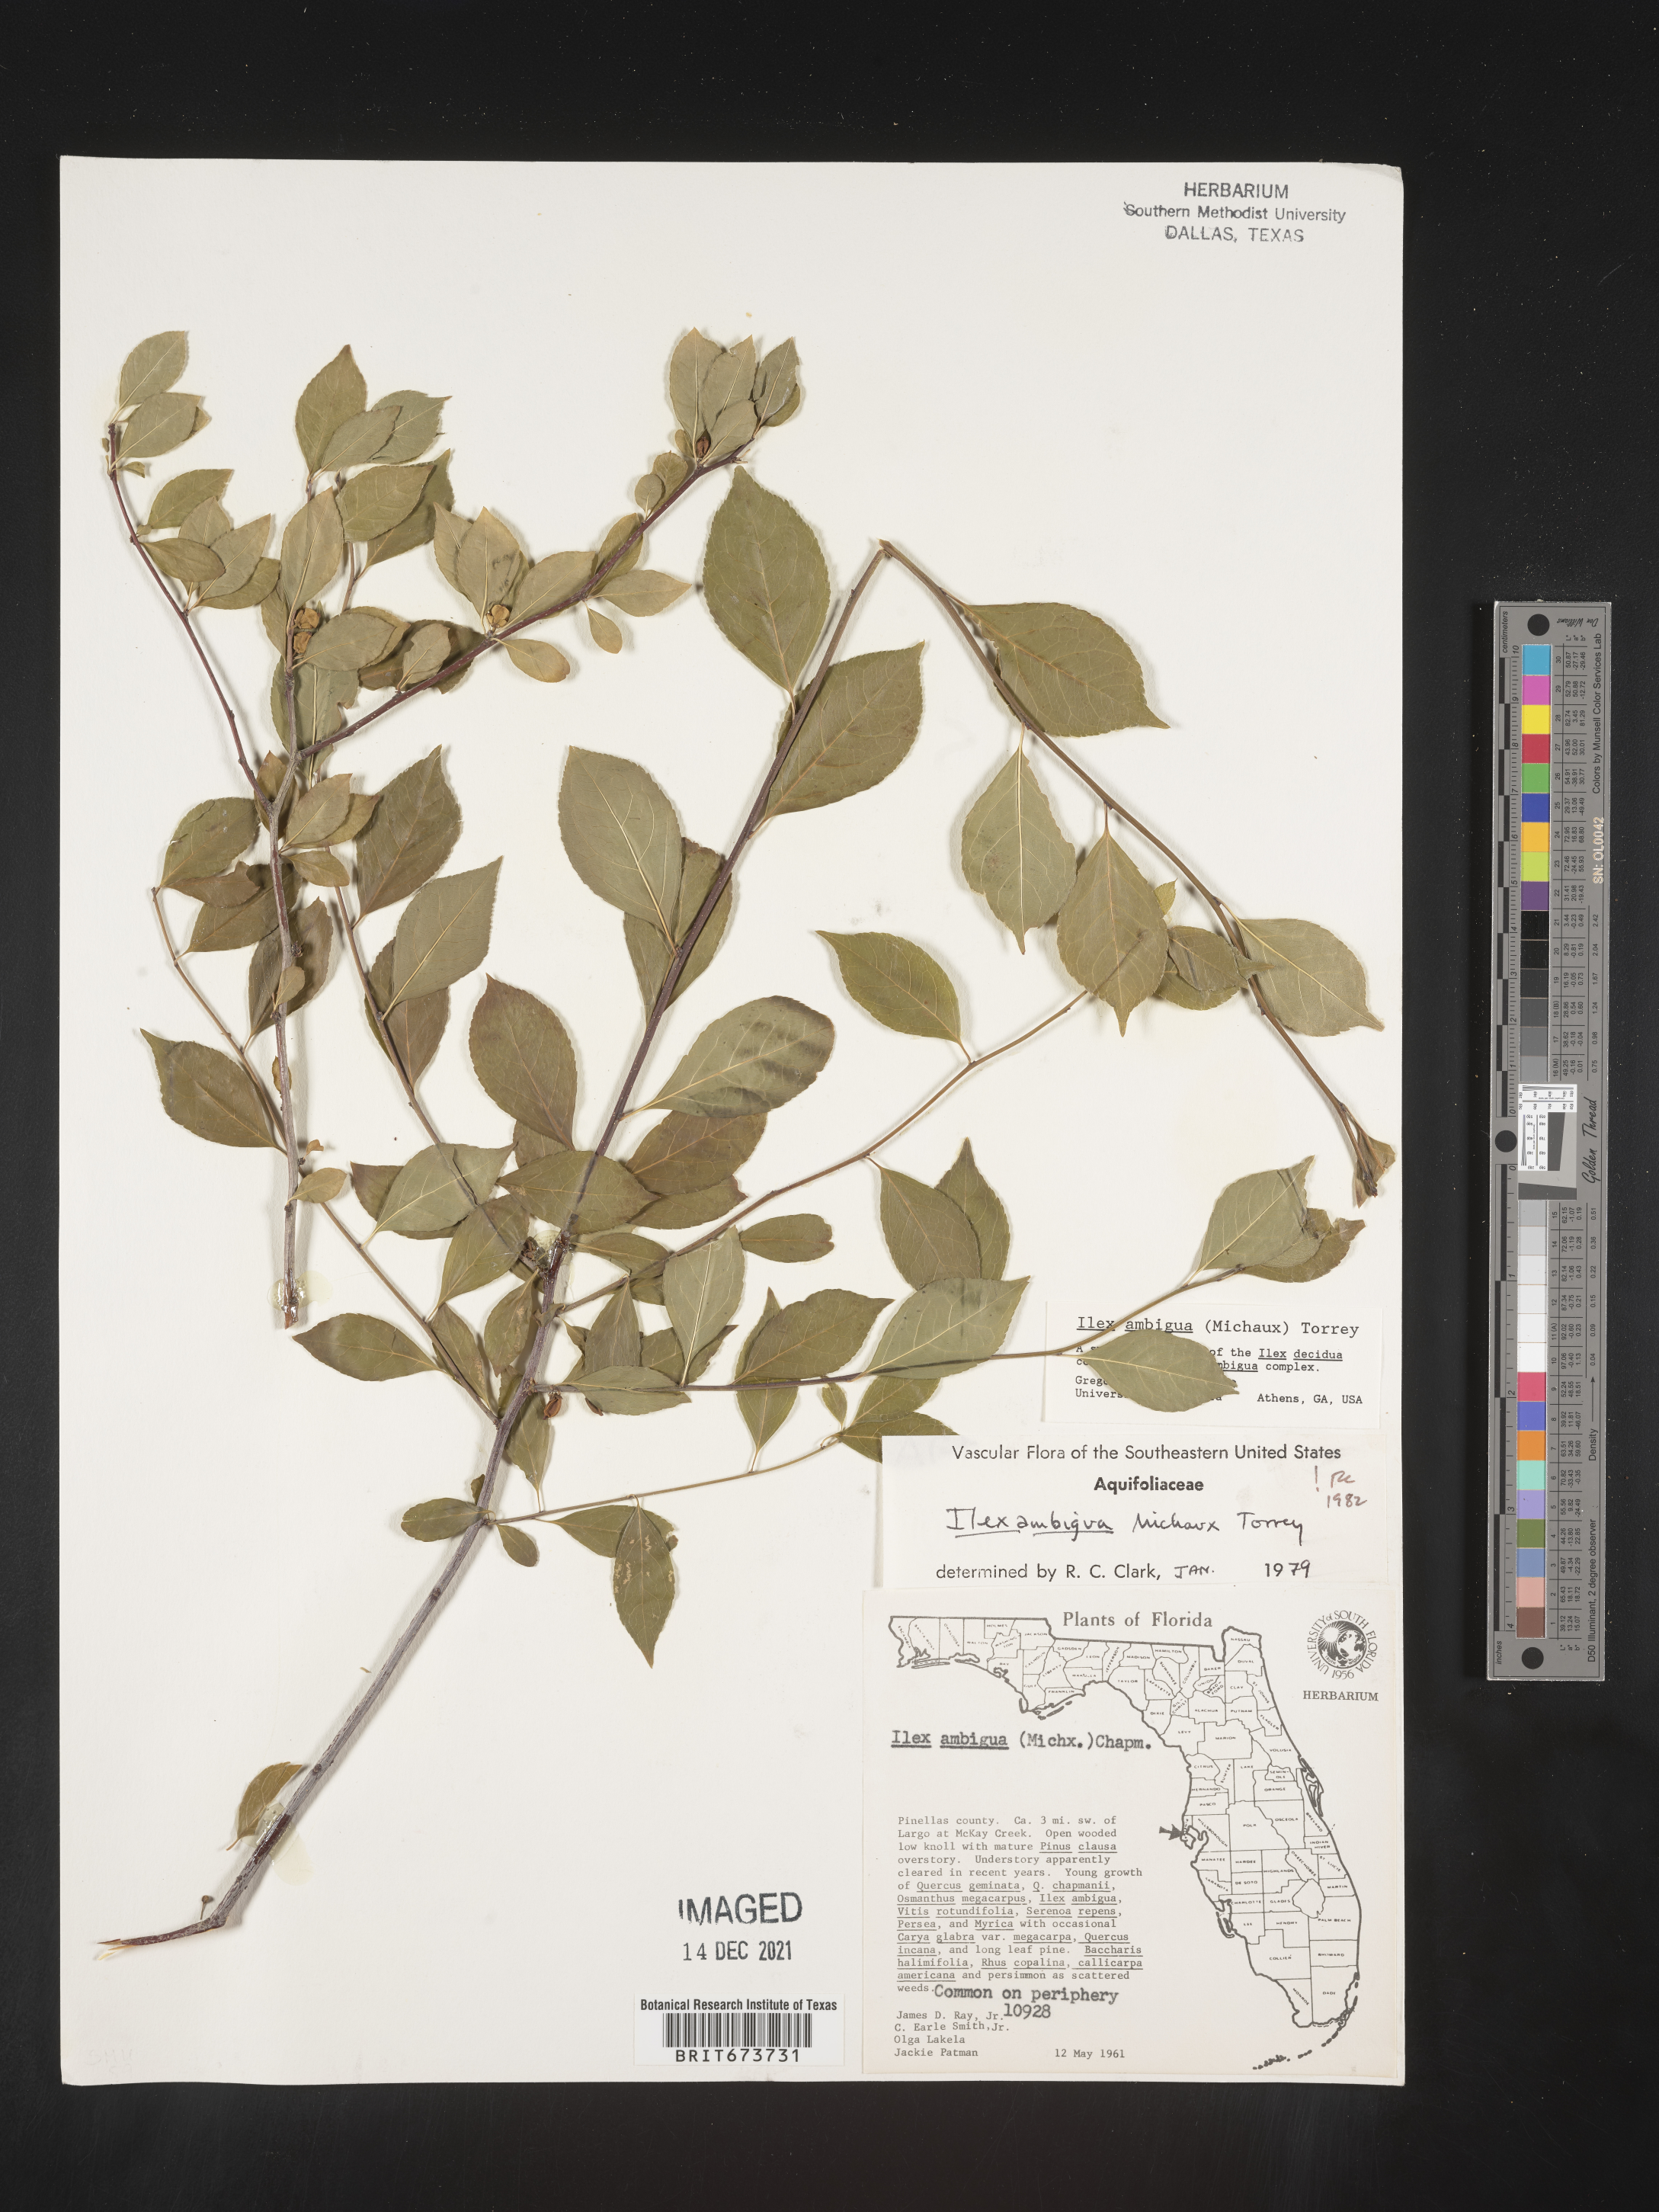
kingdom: Plantae
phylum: Tracheophyta
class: Magnoliopsida
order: Aquifoliales
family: Aquifoliaceae
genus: Ilex
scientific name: Ilex ambigua
